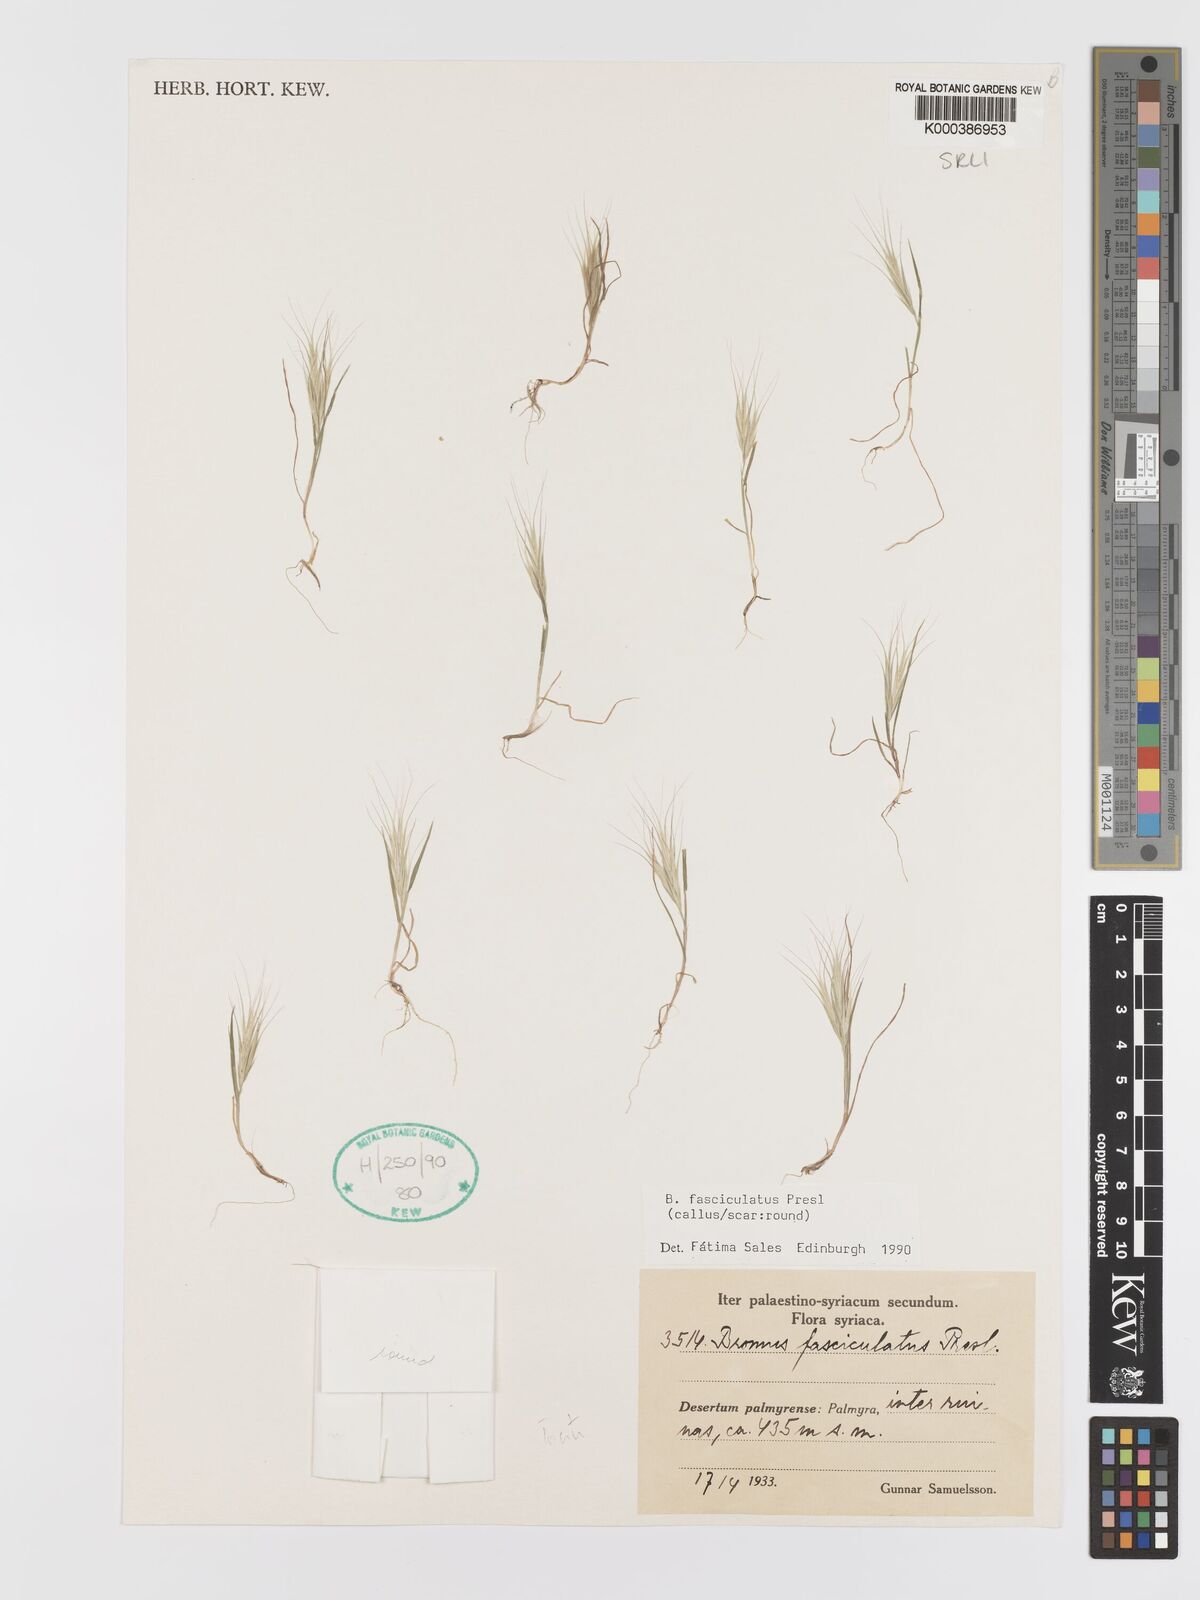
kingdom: Plantae
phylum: Tracheophyta
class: Liliopsida
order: Poales
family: Poaceae
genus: Bromus
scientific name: Bromus fasciculatus
